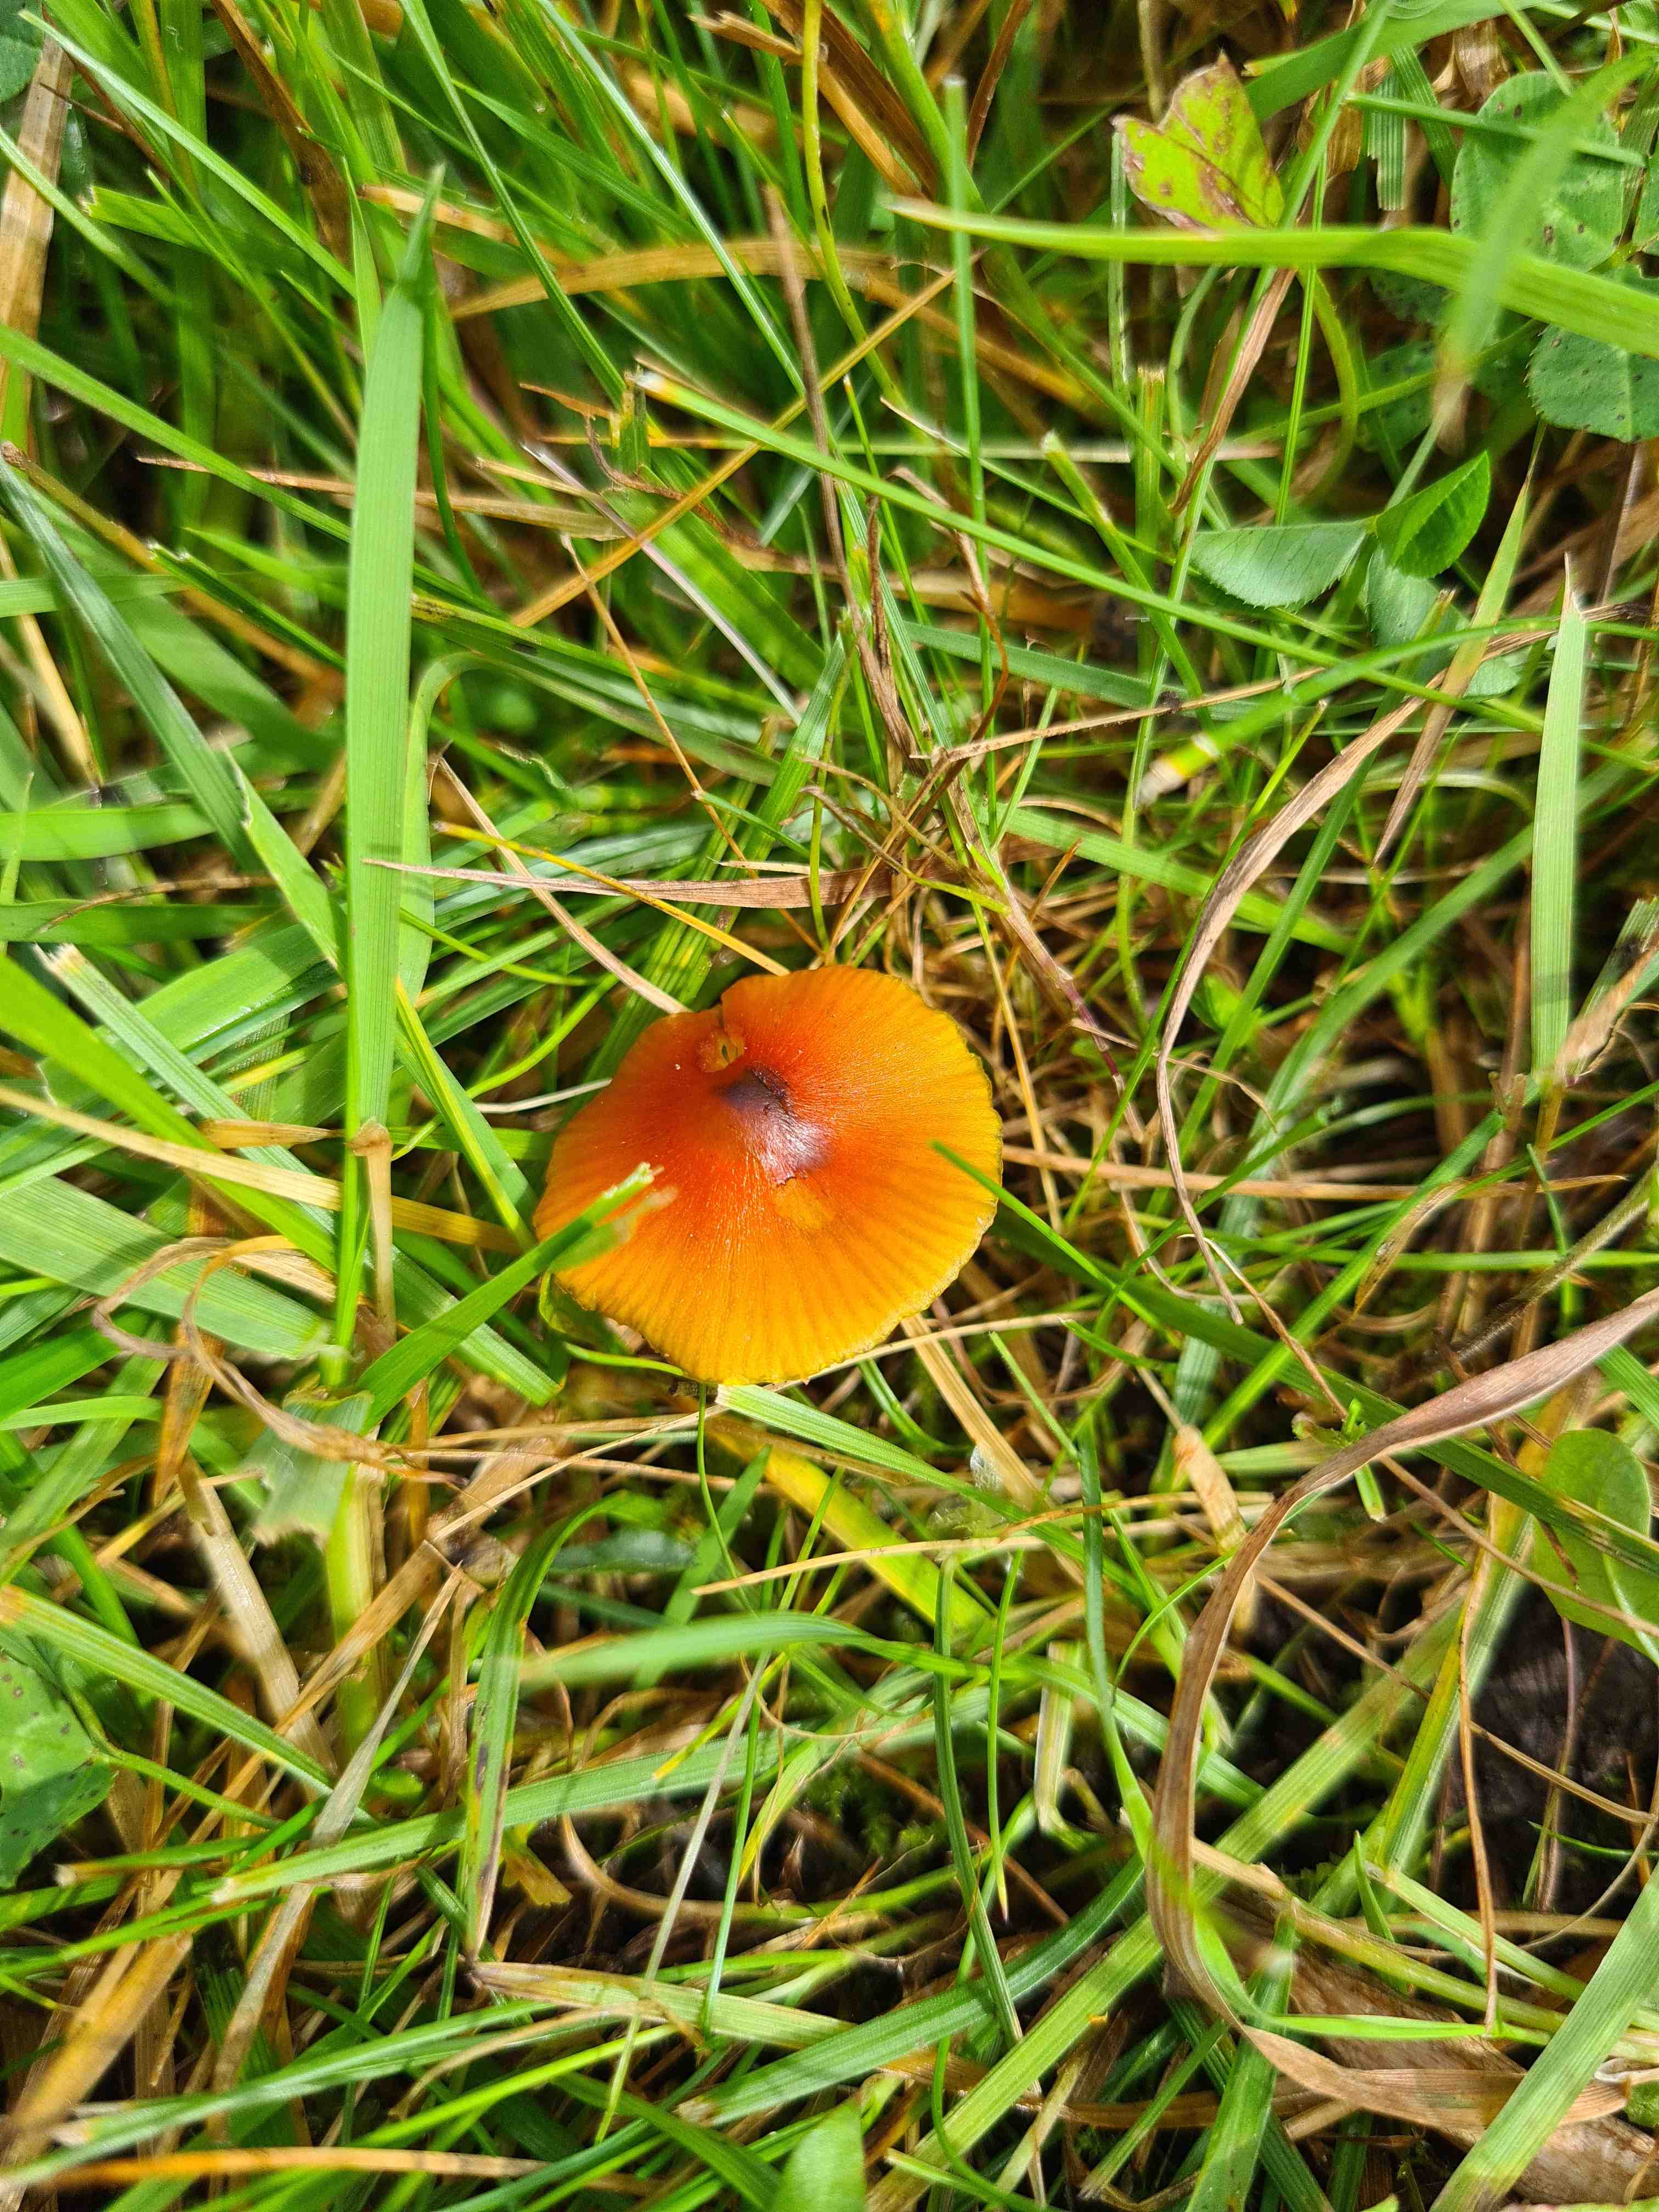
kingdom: Fungi
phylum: Basidiomycota
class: Agaricomycetes
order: Agaricales
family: Hygrophoraceae
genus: Hygrocybe
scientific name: Hygrocybe conica
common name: kegle-vokshat
